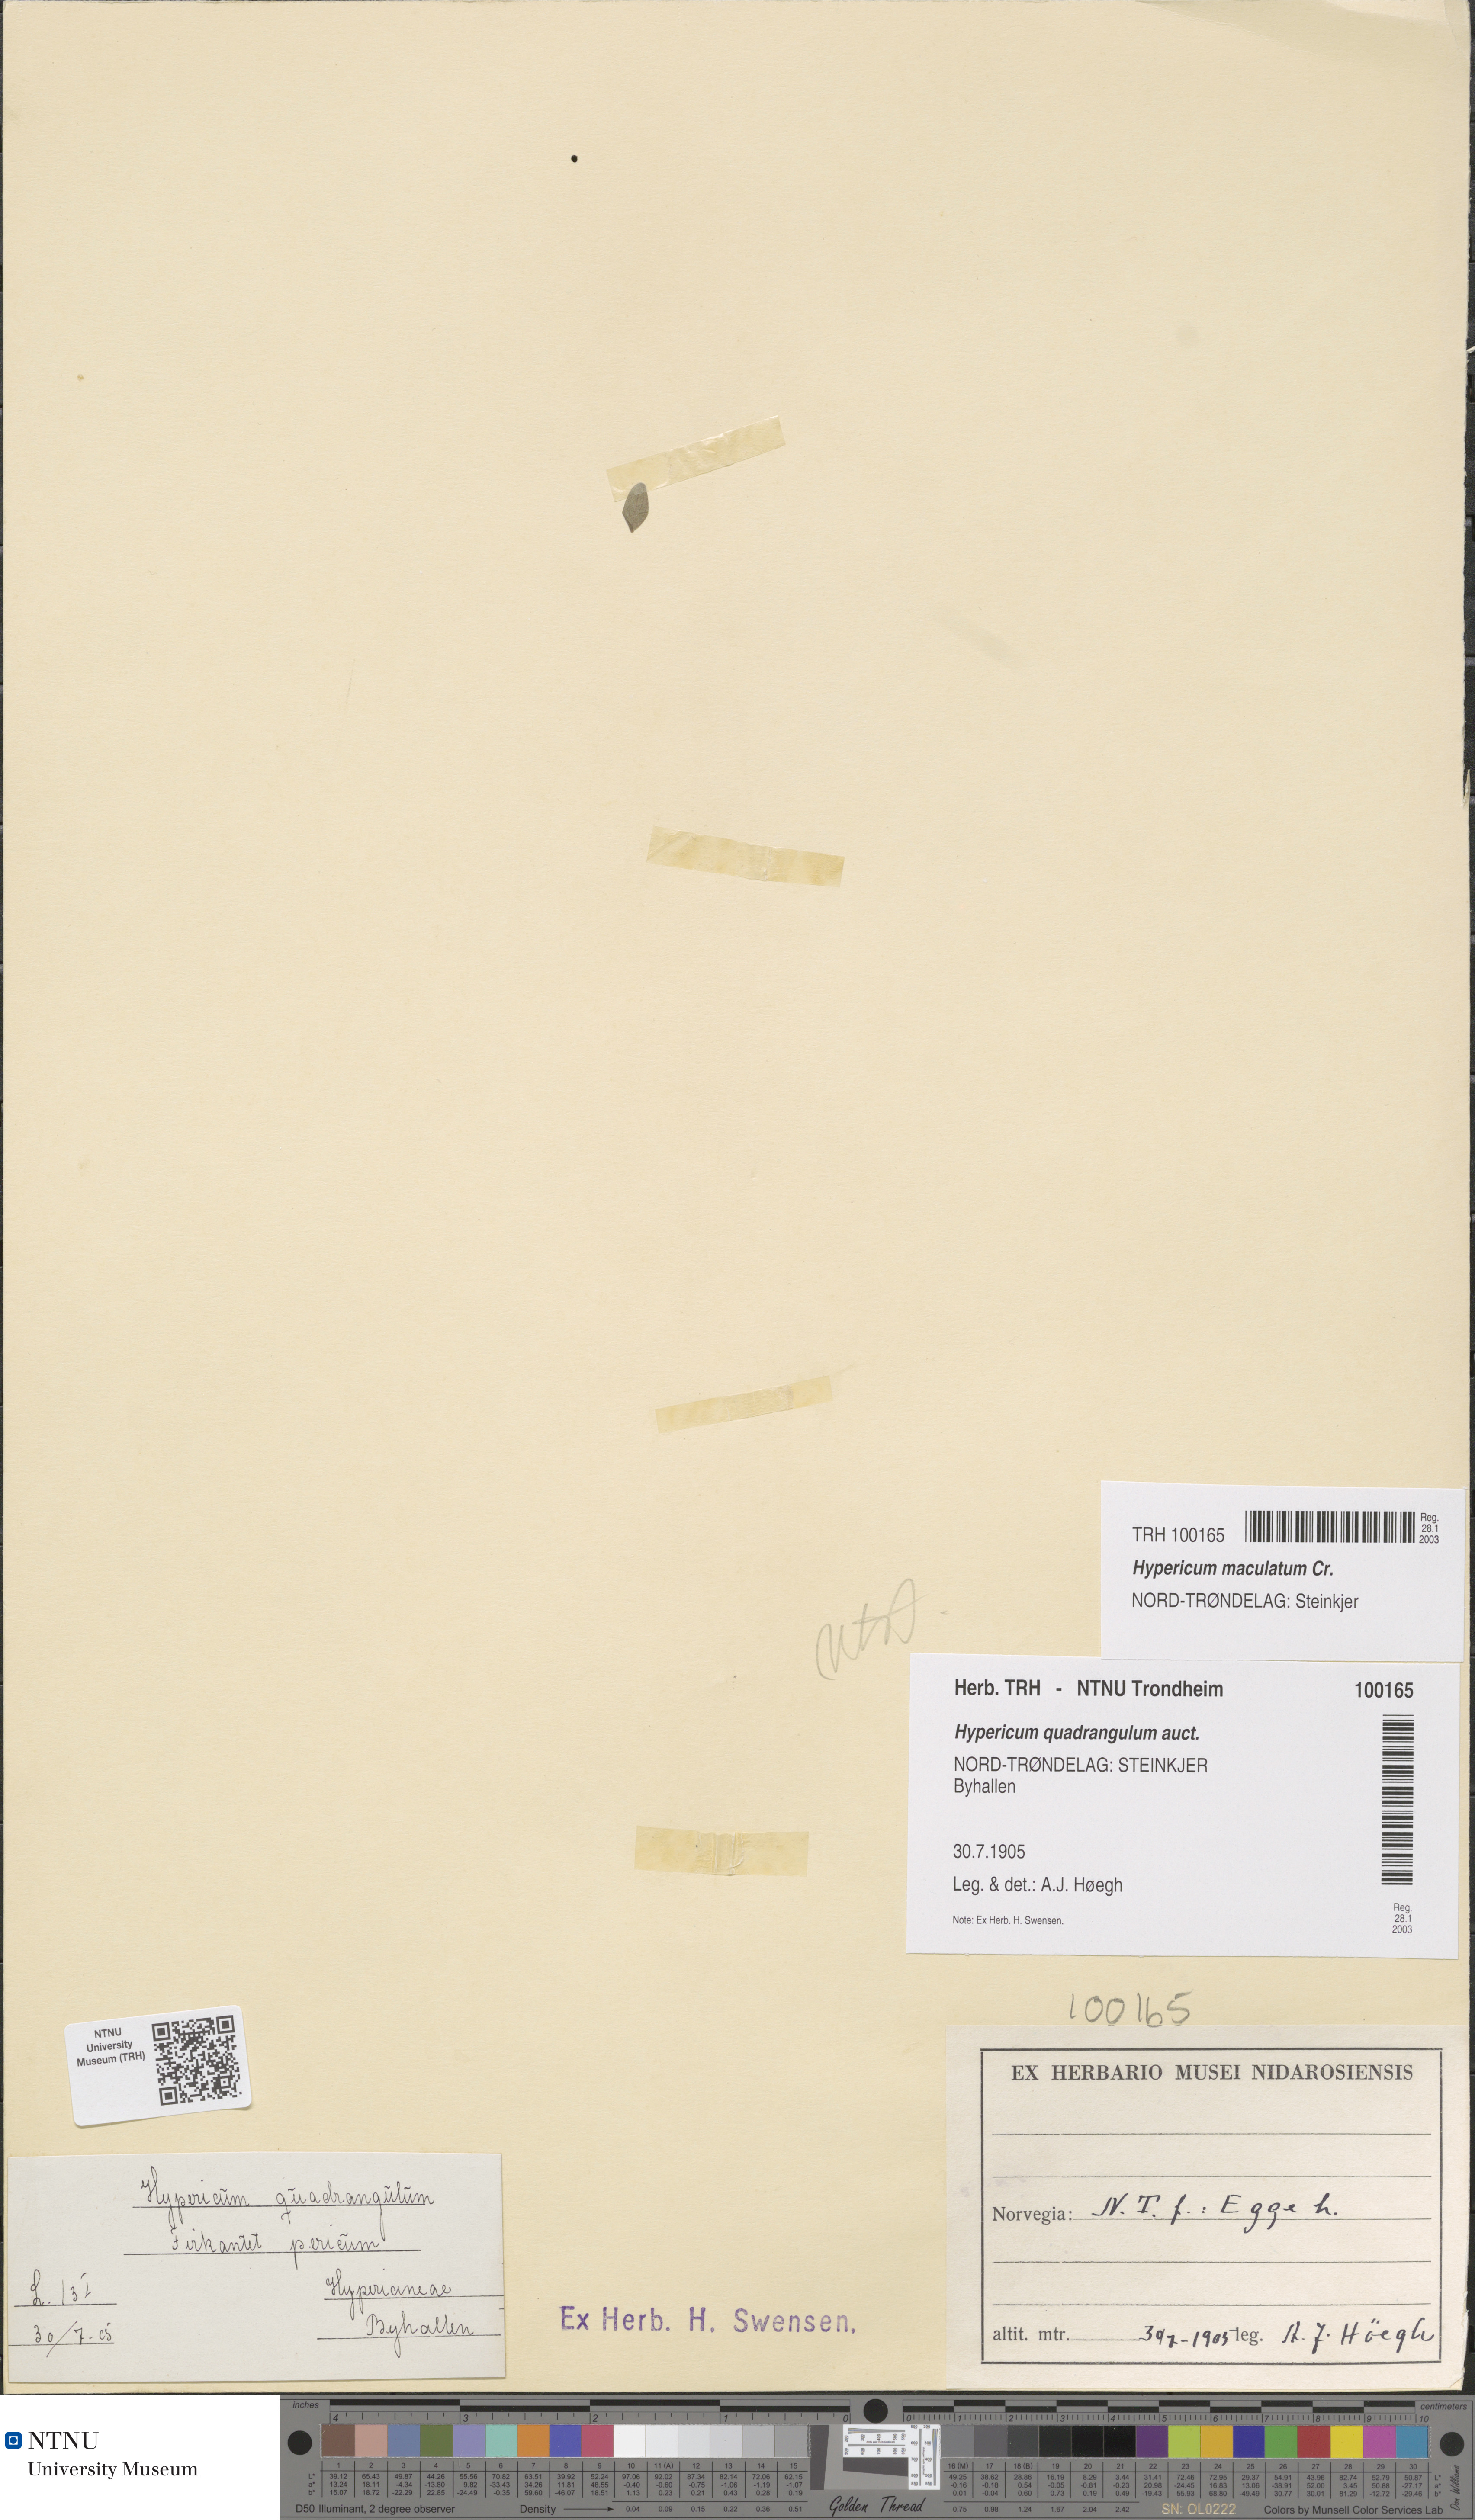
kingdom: Plantae
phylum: Tracheophyta
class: Magnoliopsida
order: Malpighiales
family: Hypericaceae
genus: Hypericum
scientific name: Hypericum maculatum
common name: Imperforate st. john's-wort
